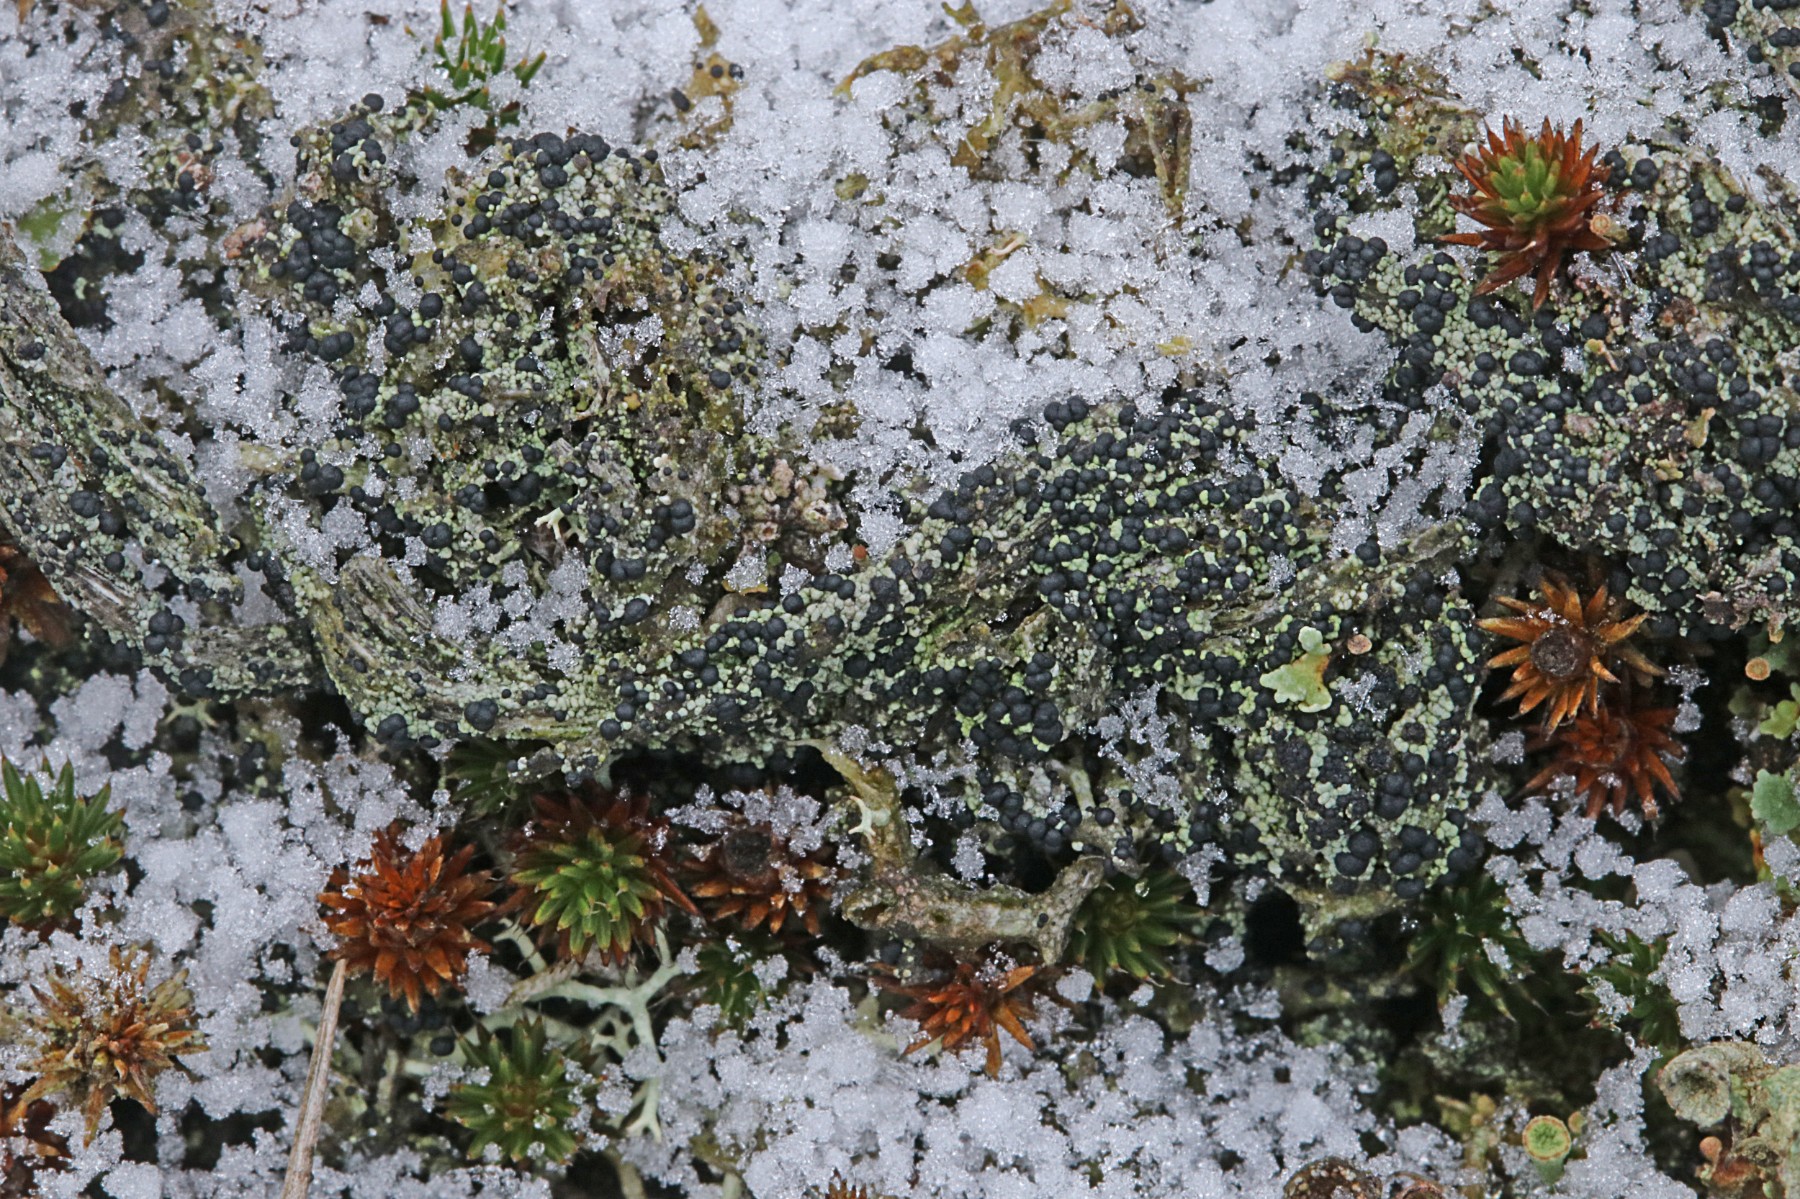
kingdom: Fungi
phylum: Ascomycota
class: Lecanoromycetes
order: Lecanorales
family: Byssolomataceae
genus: Micarea
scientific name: Micarea lignaria
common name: tørve-knaplav
